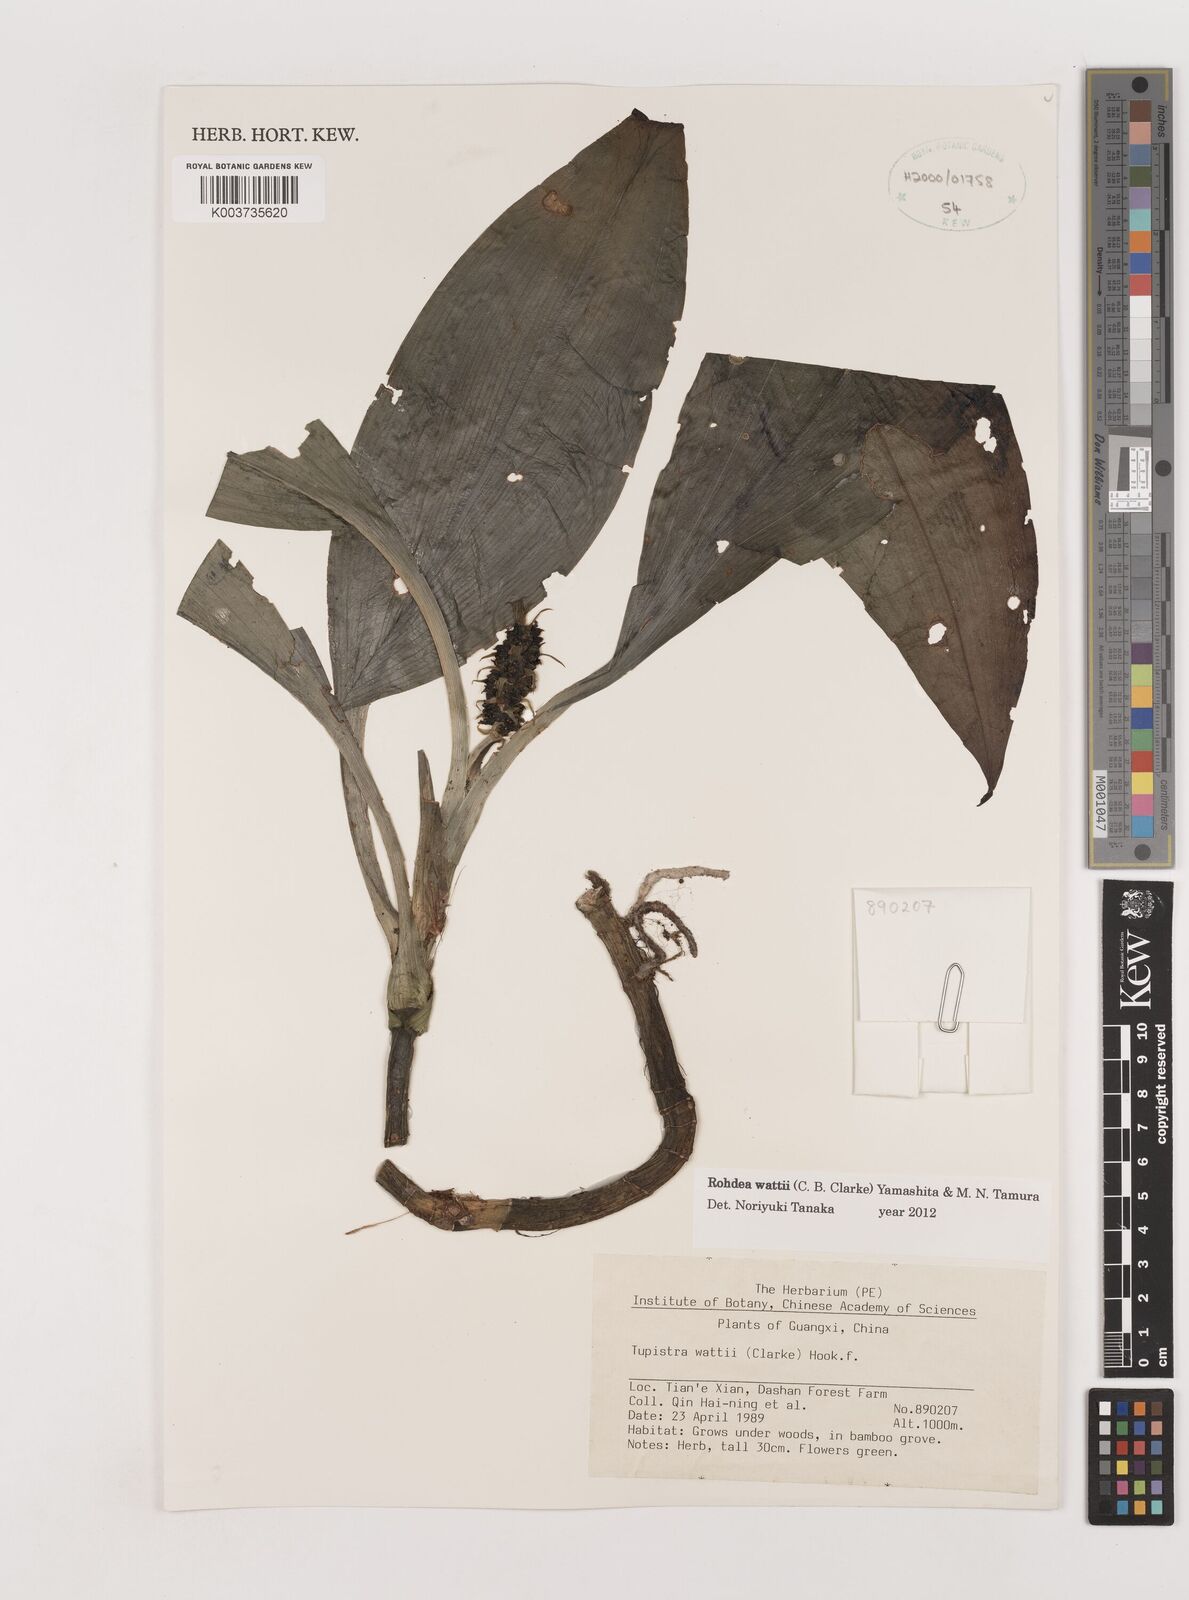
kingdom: Plantae
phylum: Tracheophyta
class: Liliopsida
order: Asparagales
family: Asparagaceae
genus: Rohdea
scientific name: Rohdea wattii
